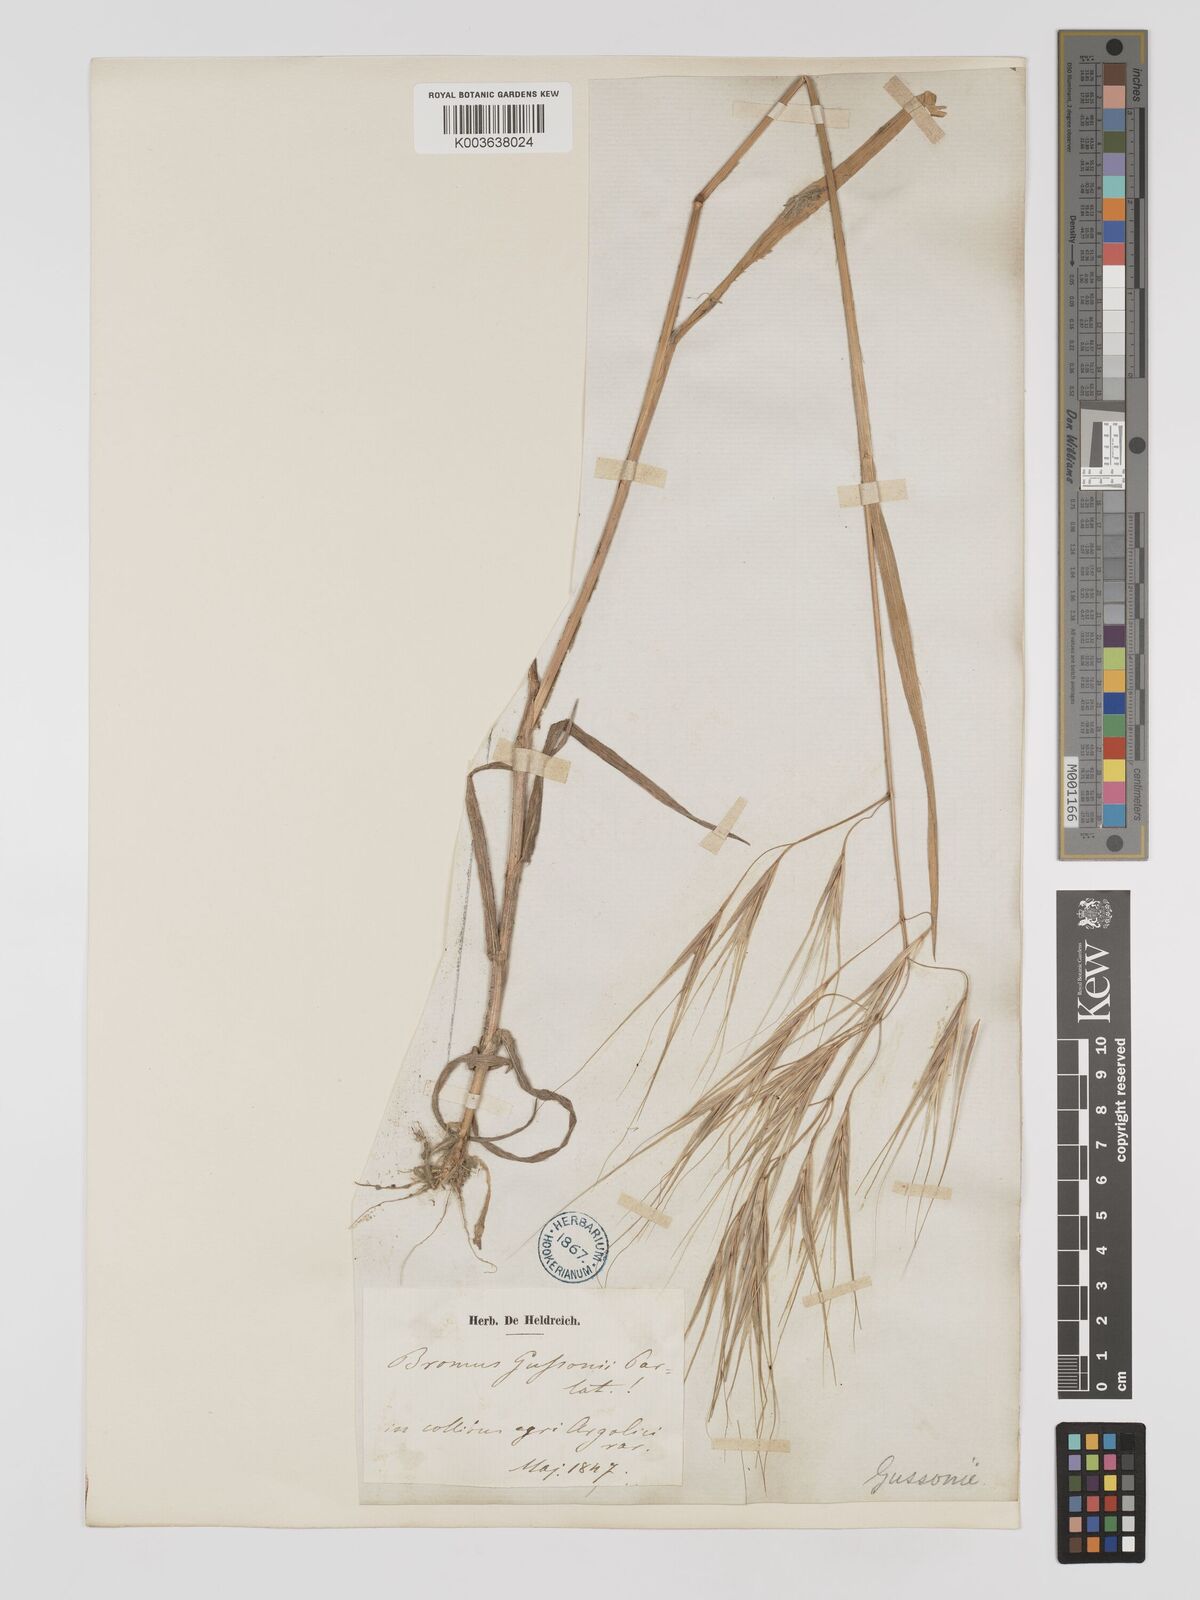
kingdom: Plantae
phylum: Tracheophyta
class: Liliopsida
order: Poales
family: Poaceae
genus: Bromus
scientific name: Bromus
